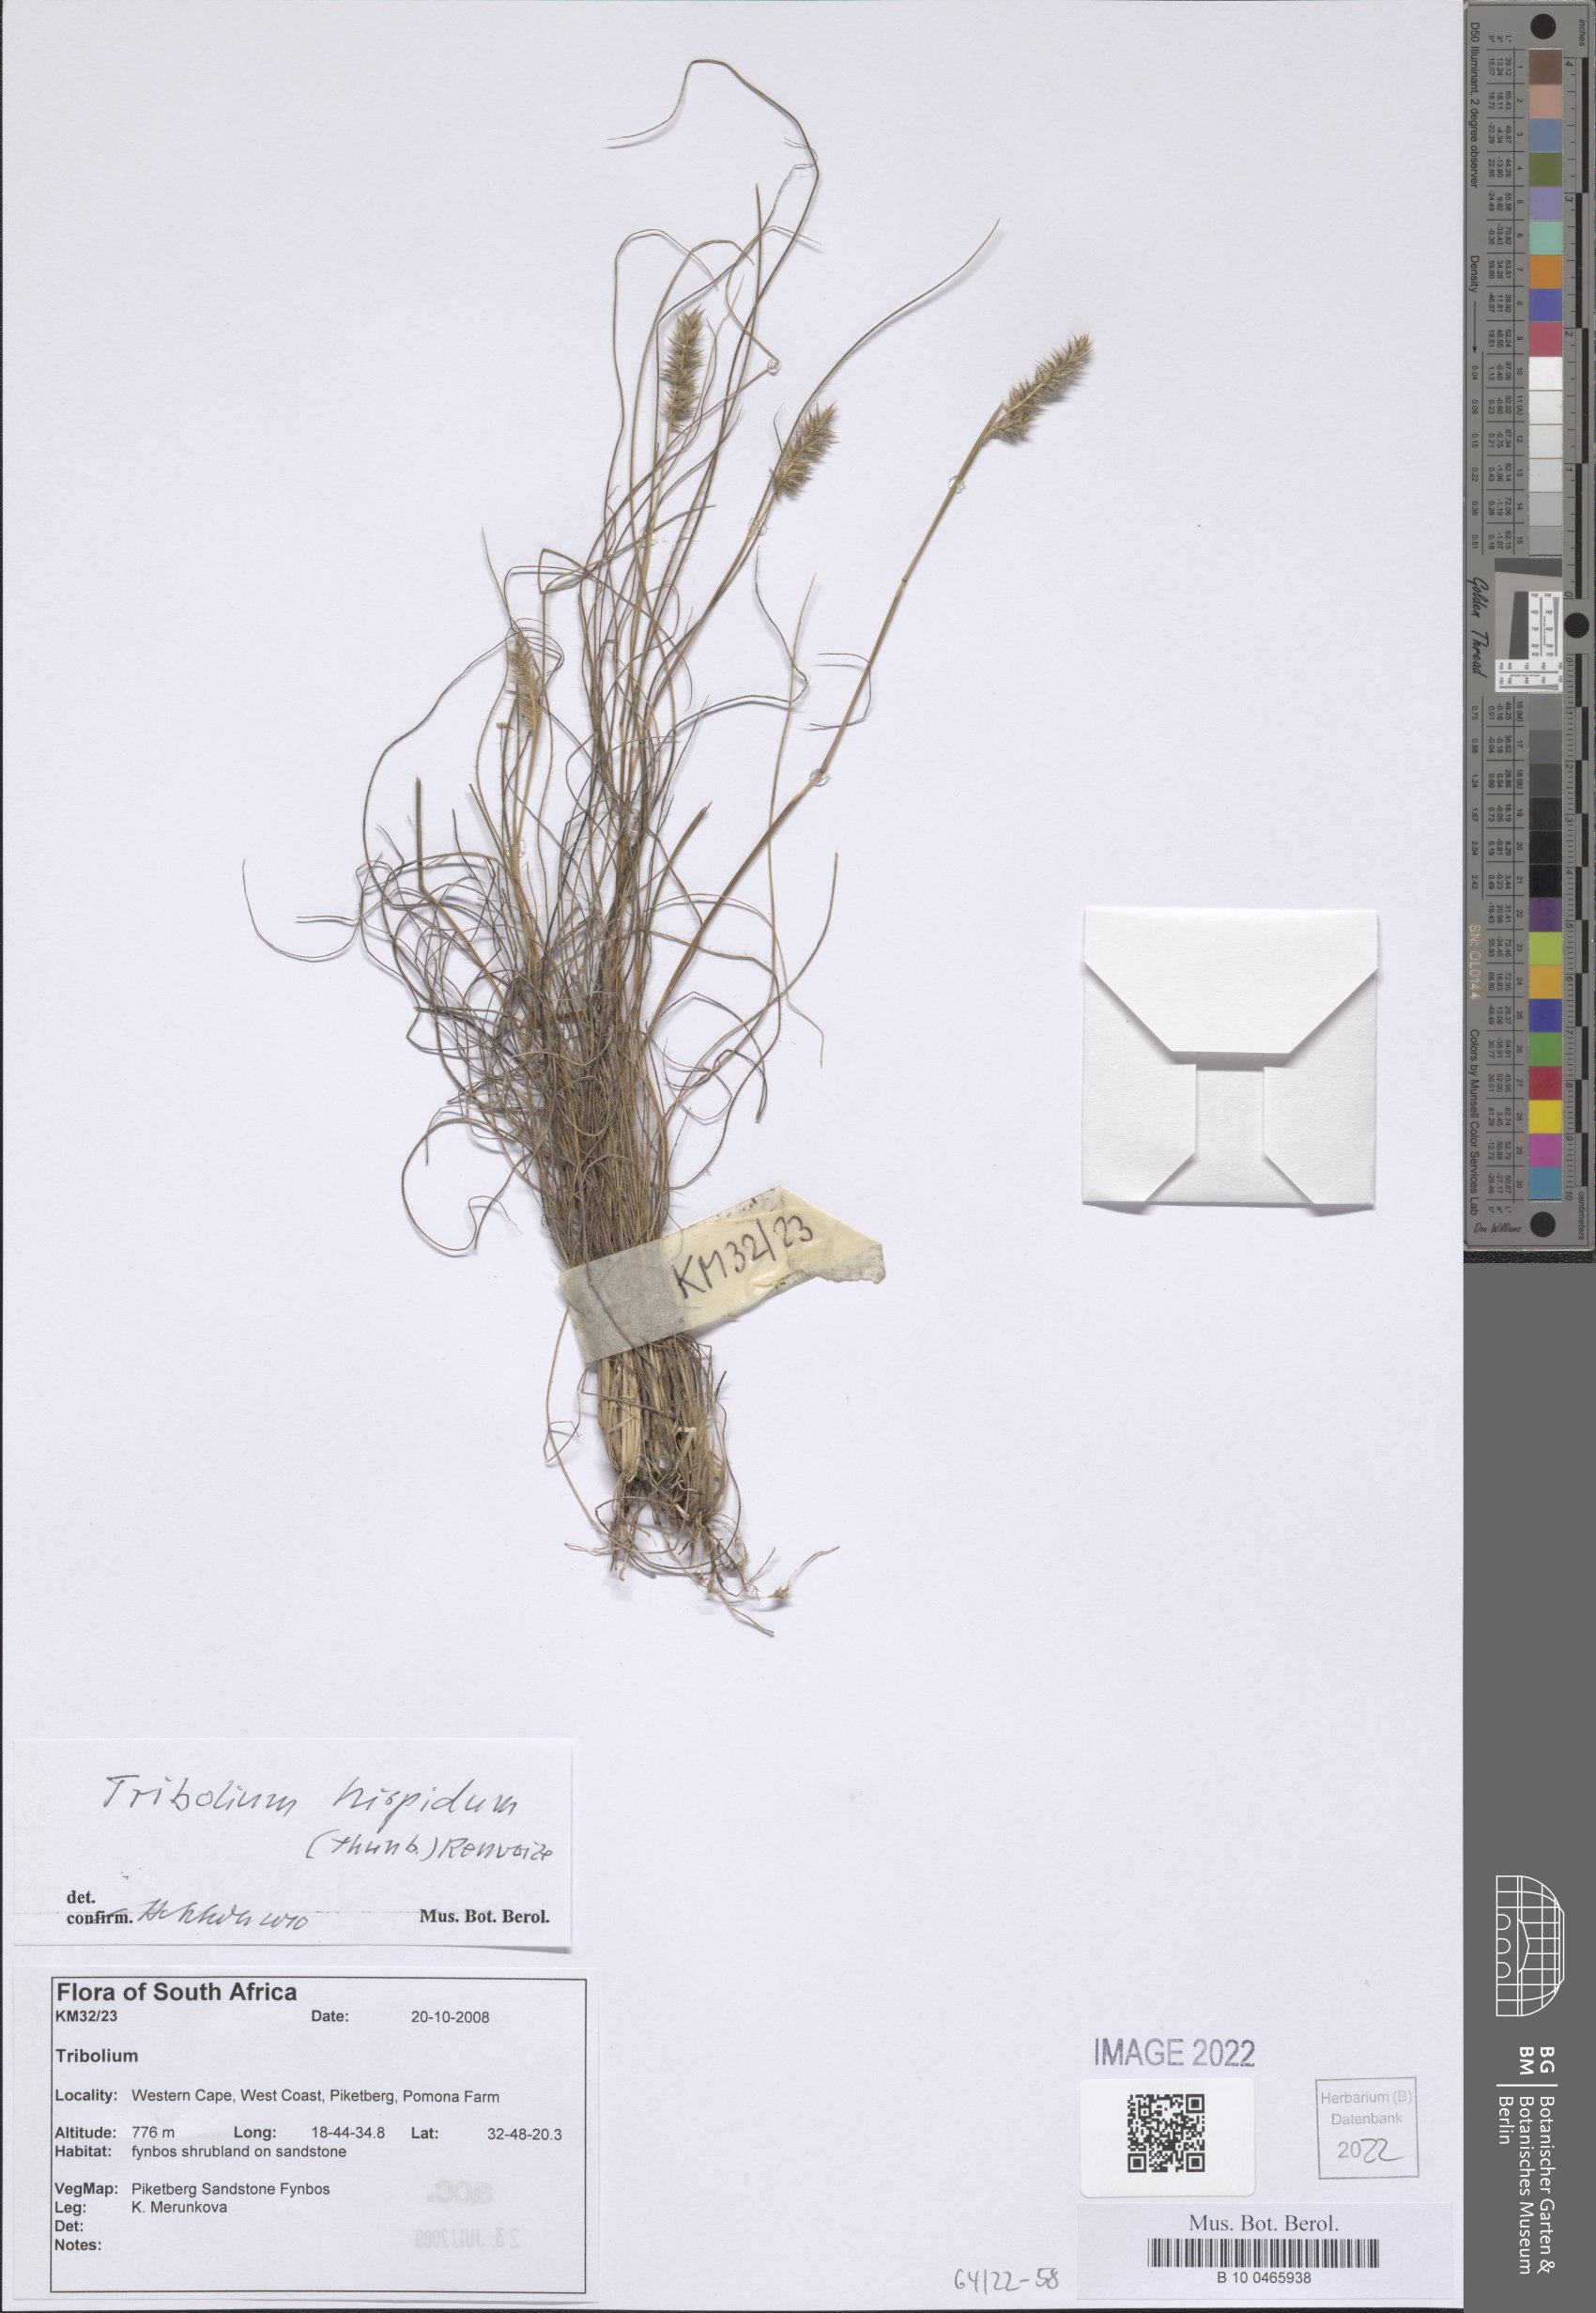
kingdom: Plantae
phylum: Tracheophyta
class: Liliopsida
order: Poales
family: Poaceae
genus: Tribolium
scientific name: Tribolium hispidum
